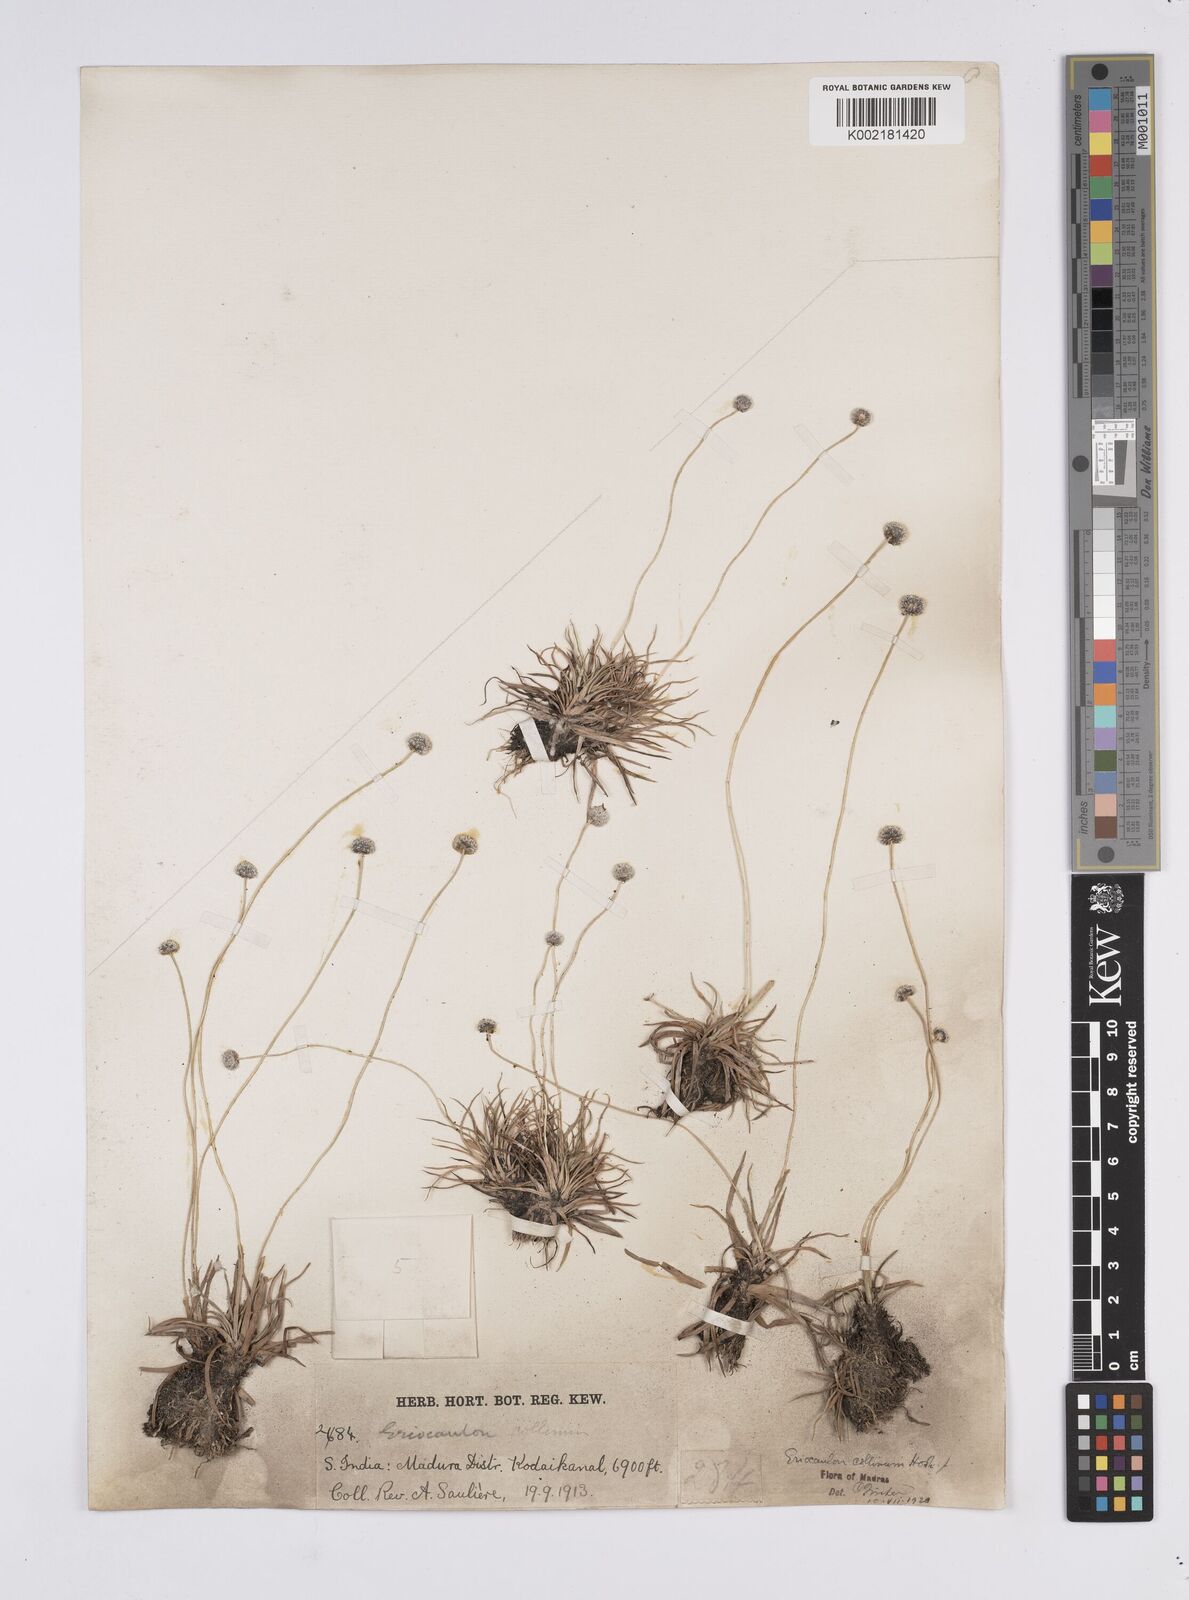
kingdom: Plantae
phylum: Tracheophyta
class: Liliopsida
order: Poales
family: Eriocaulaceae
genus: Eriocaulon
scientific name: Eriocaulon odoratum
